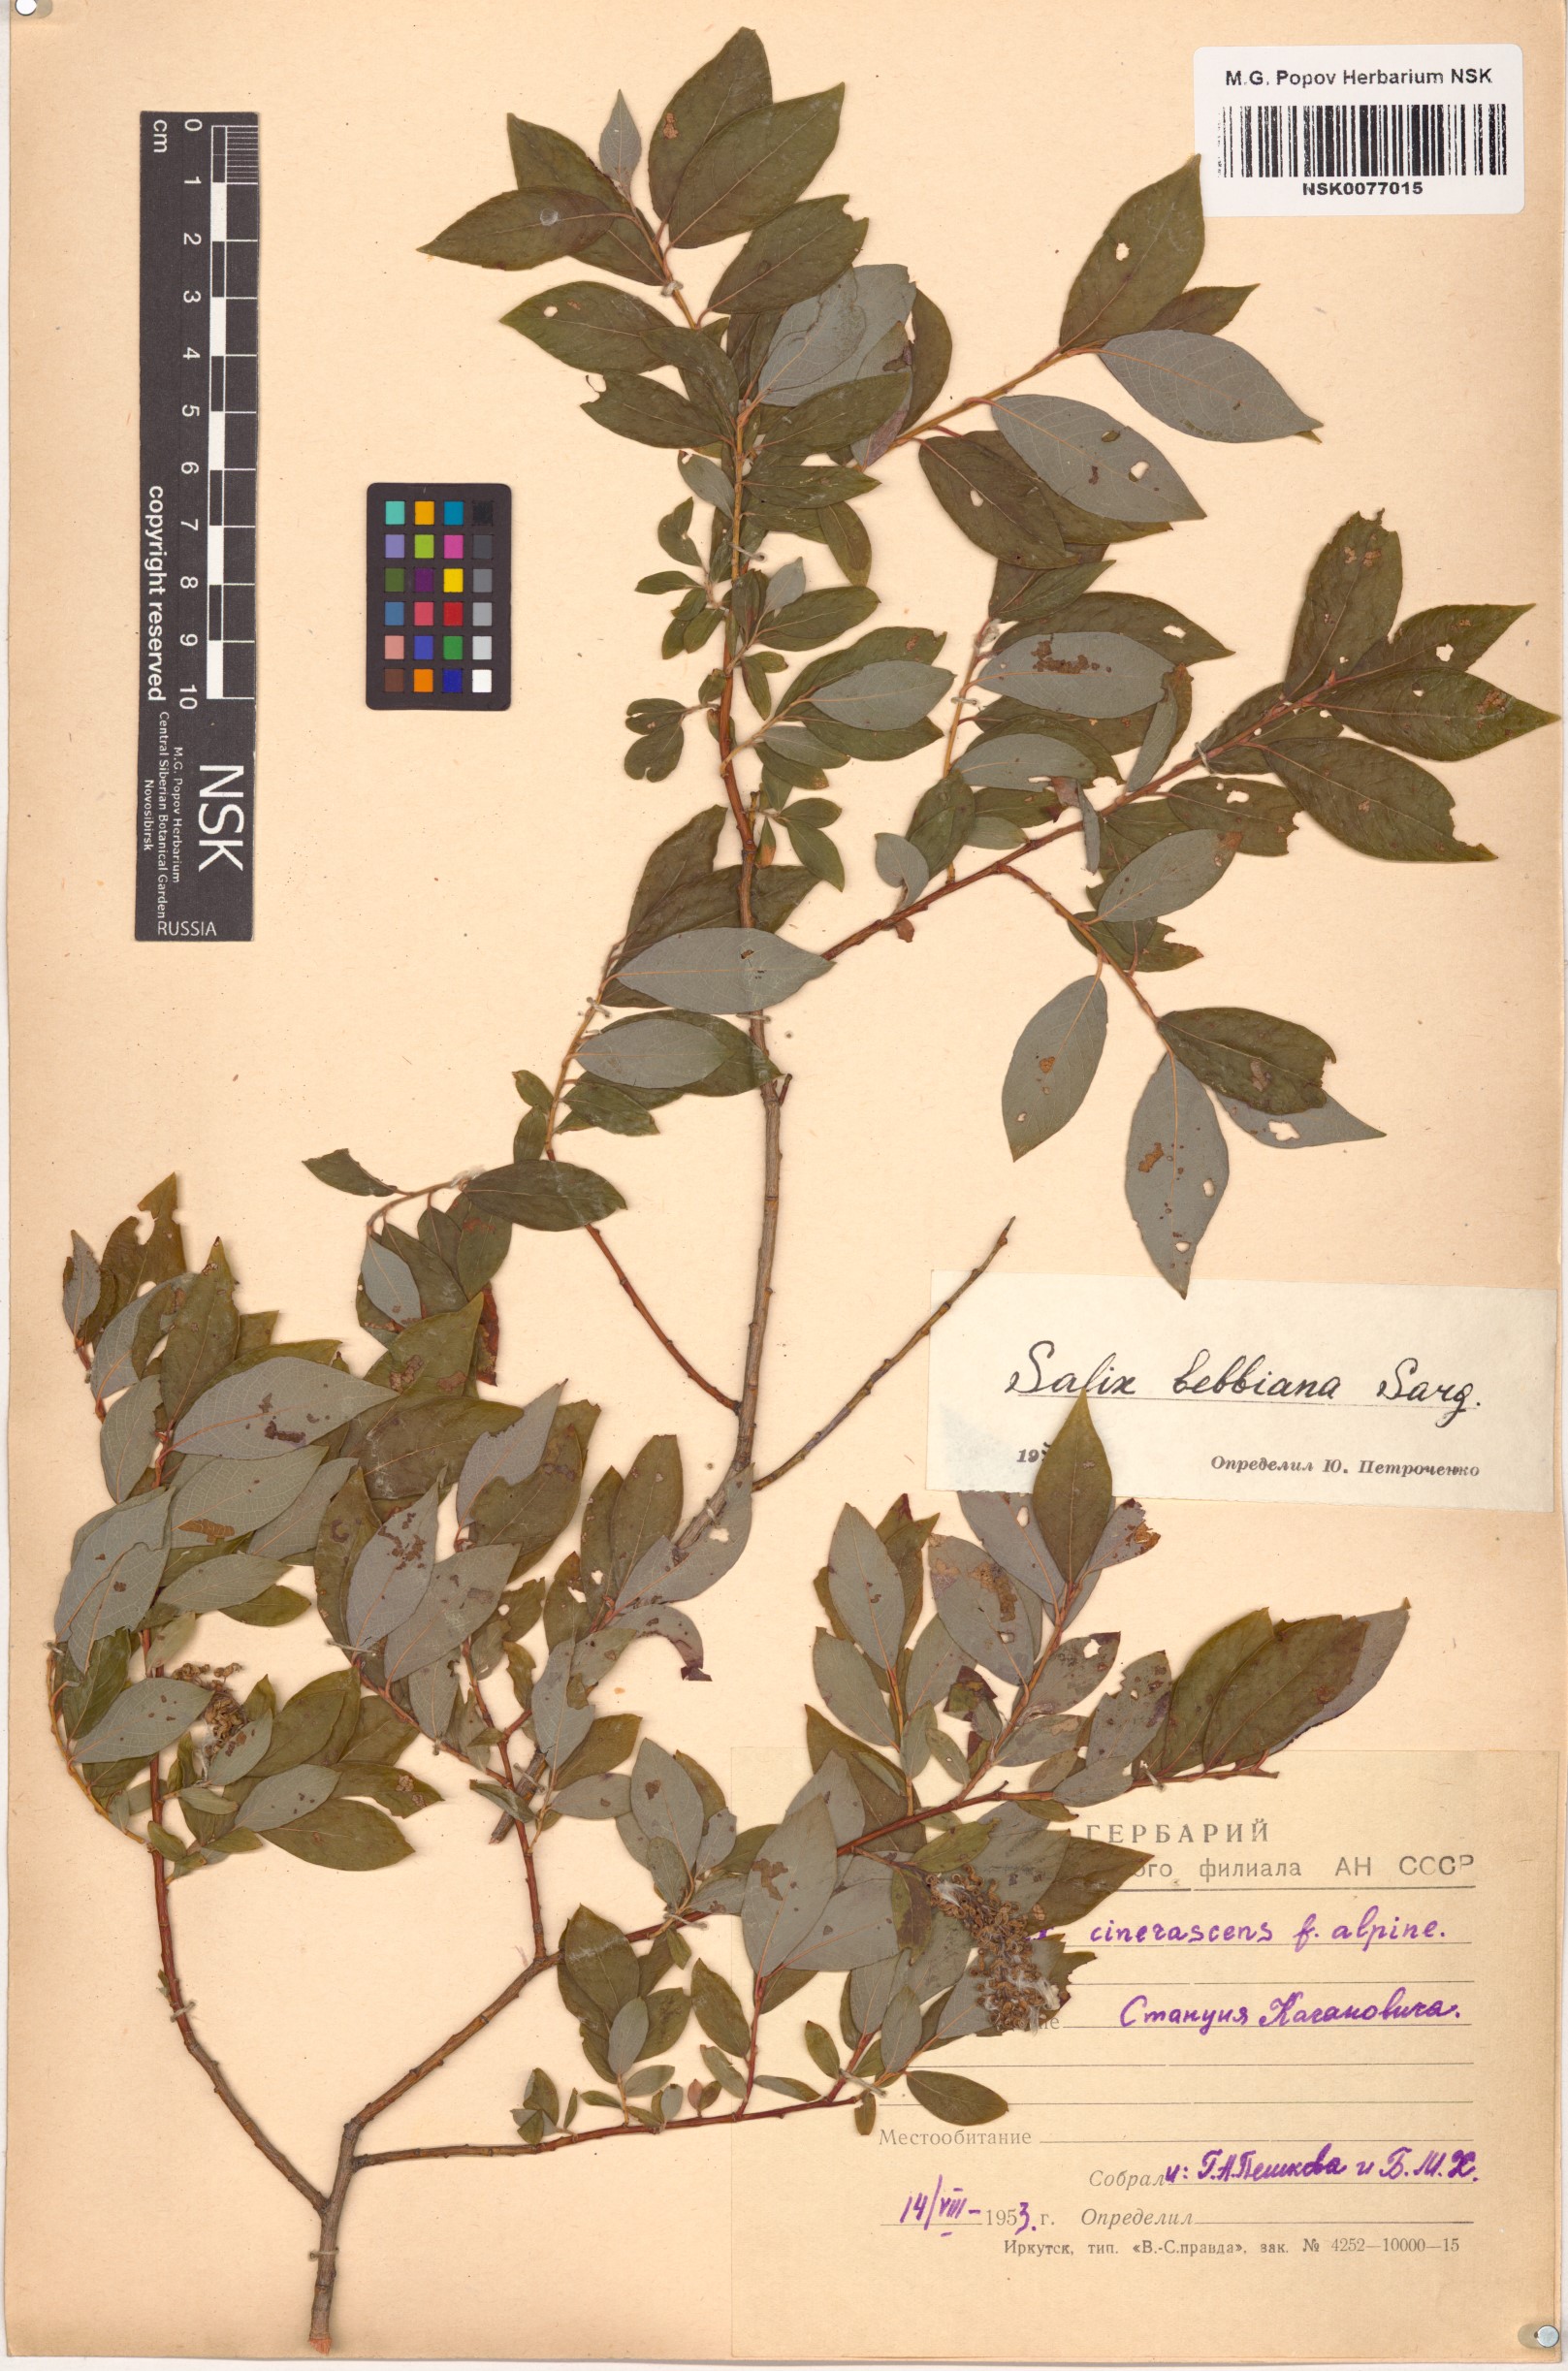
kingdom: Plantae
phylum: Tracheophyta
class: Magnoliopsida
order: Malpighiales
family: Salicaceae
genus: Salix
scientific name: Salix bebbiana
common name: Bebb's willow
